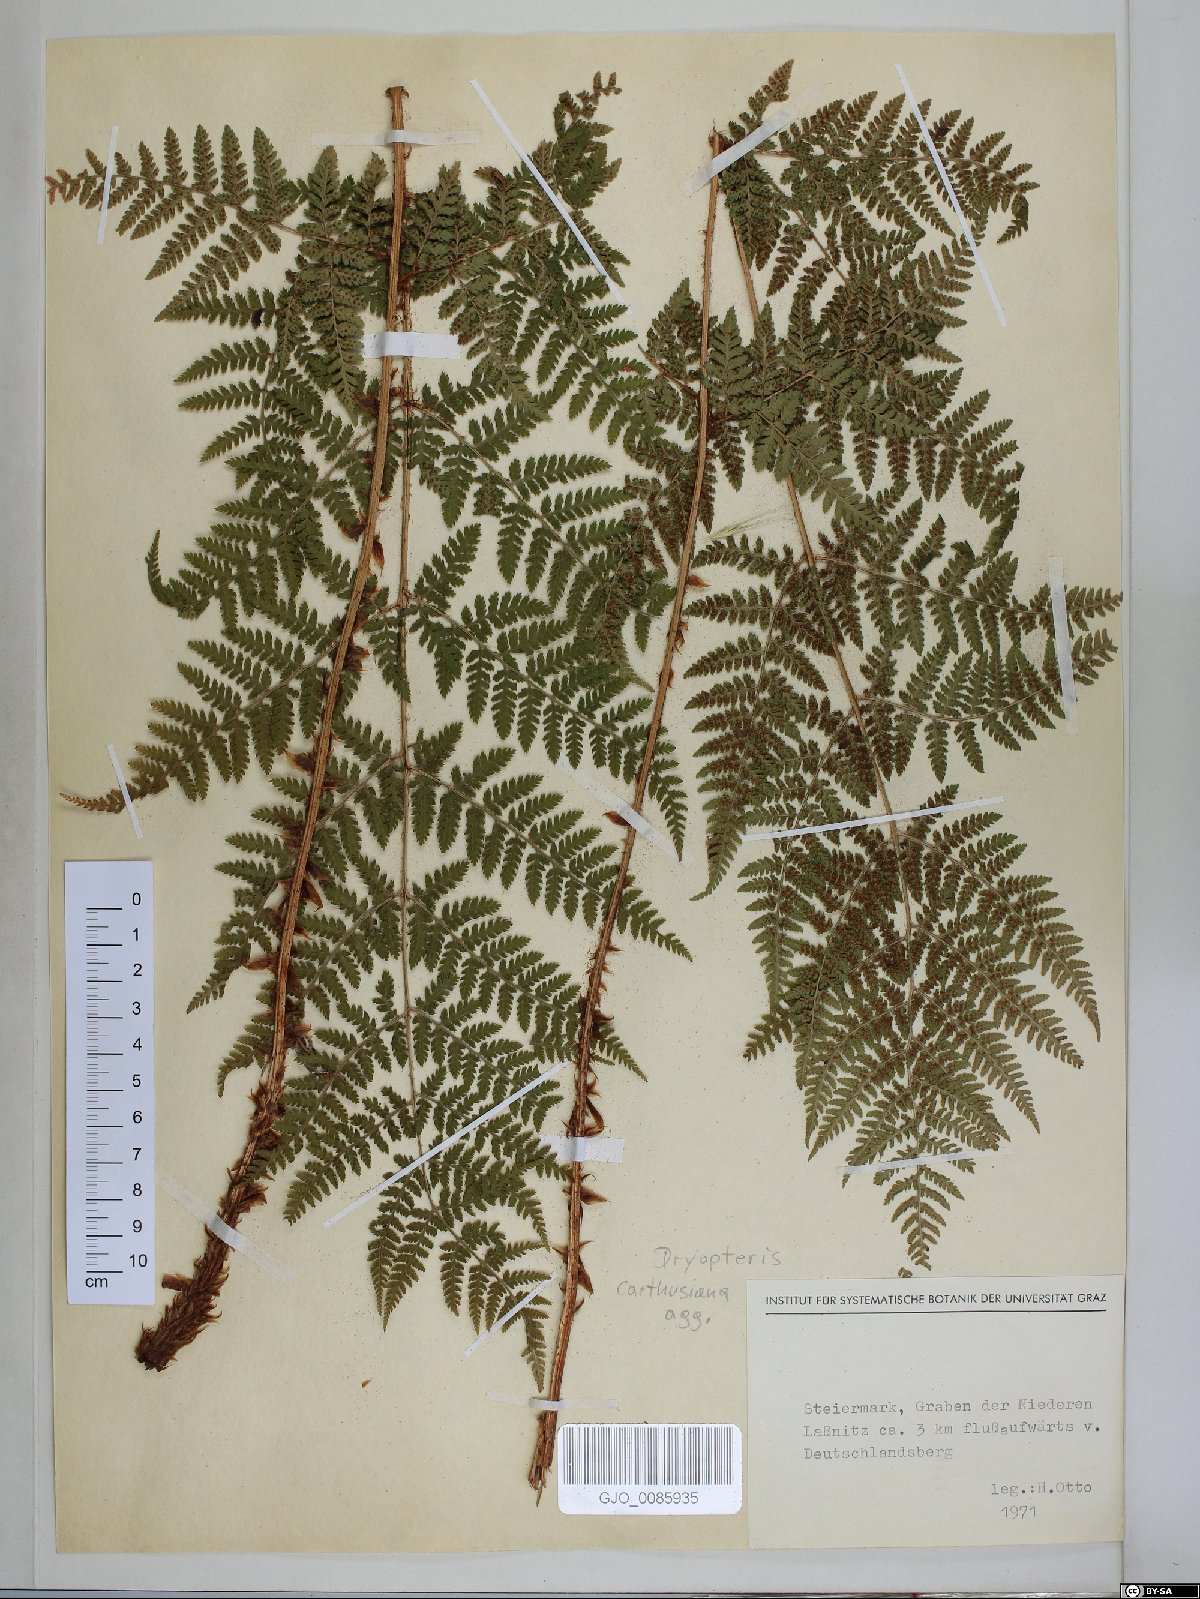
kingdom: Plantae
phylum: Tracheophyta
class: Polypodiopsida
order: Polypodiales
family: Dryopteridaceae
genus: Dryopteris
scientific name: Dryopteris carthusiana
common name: Narrow buckler-fern
